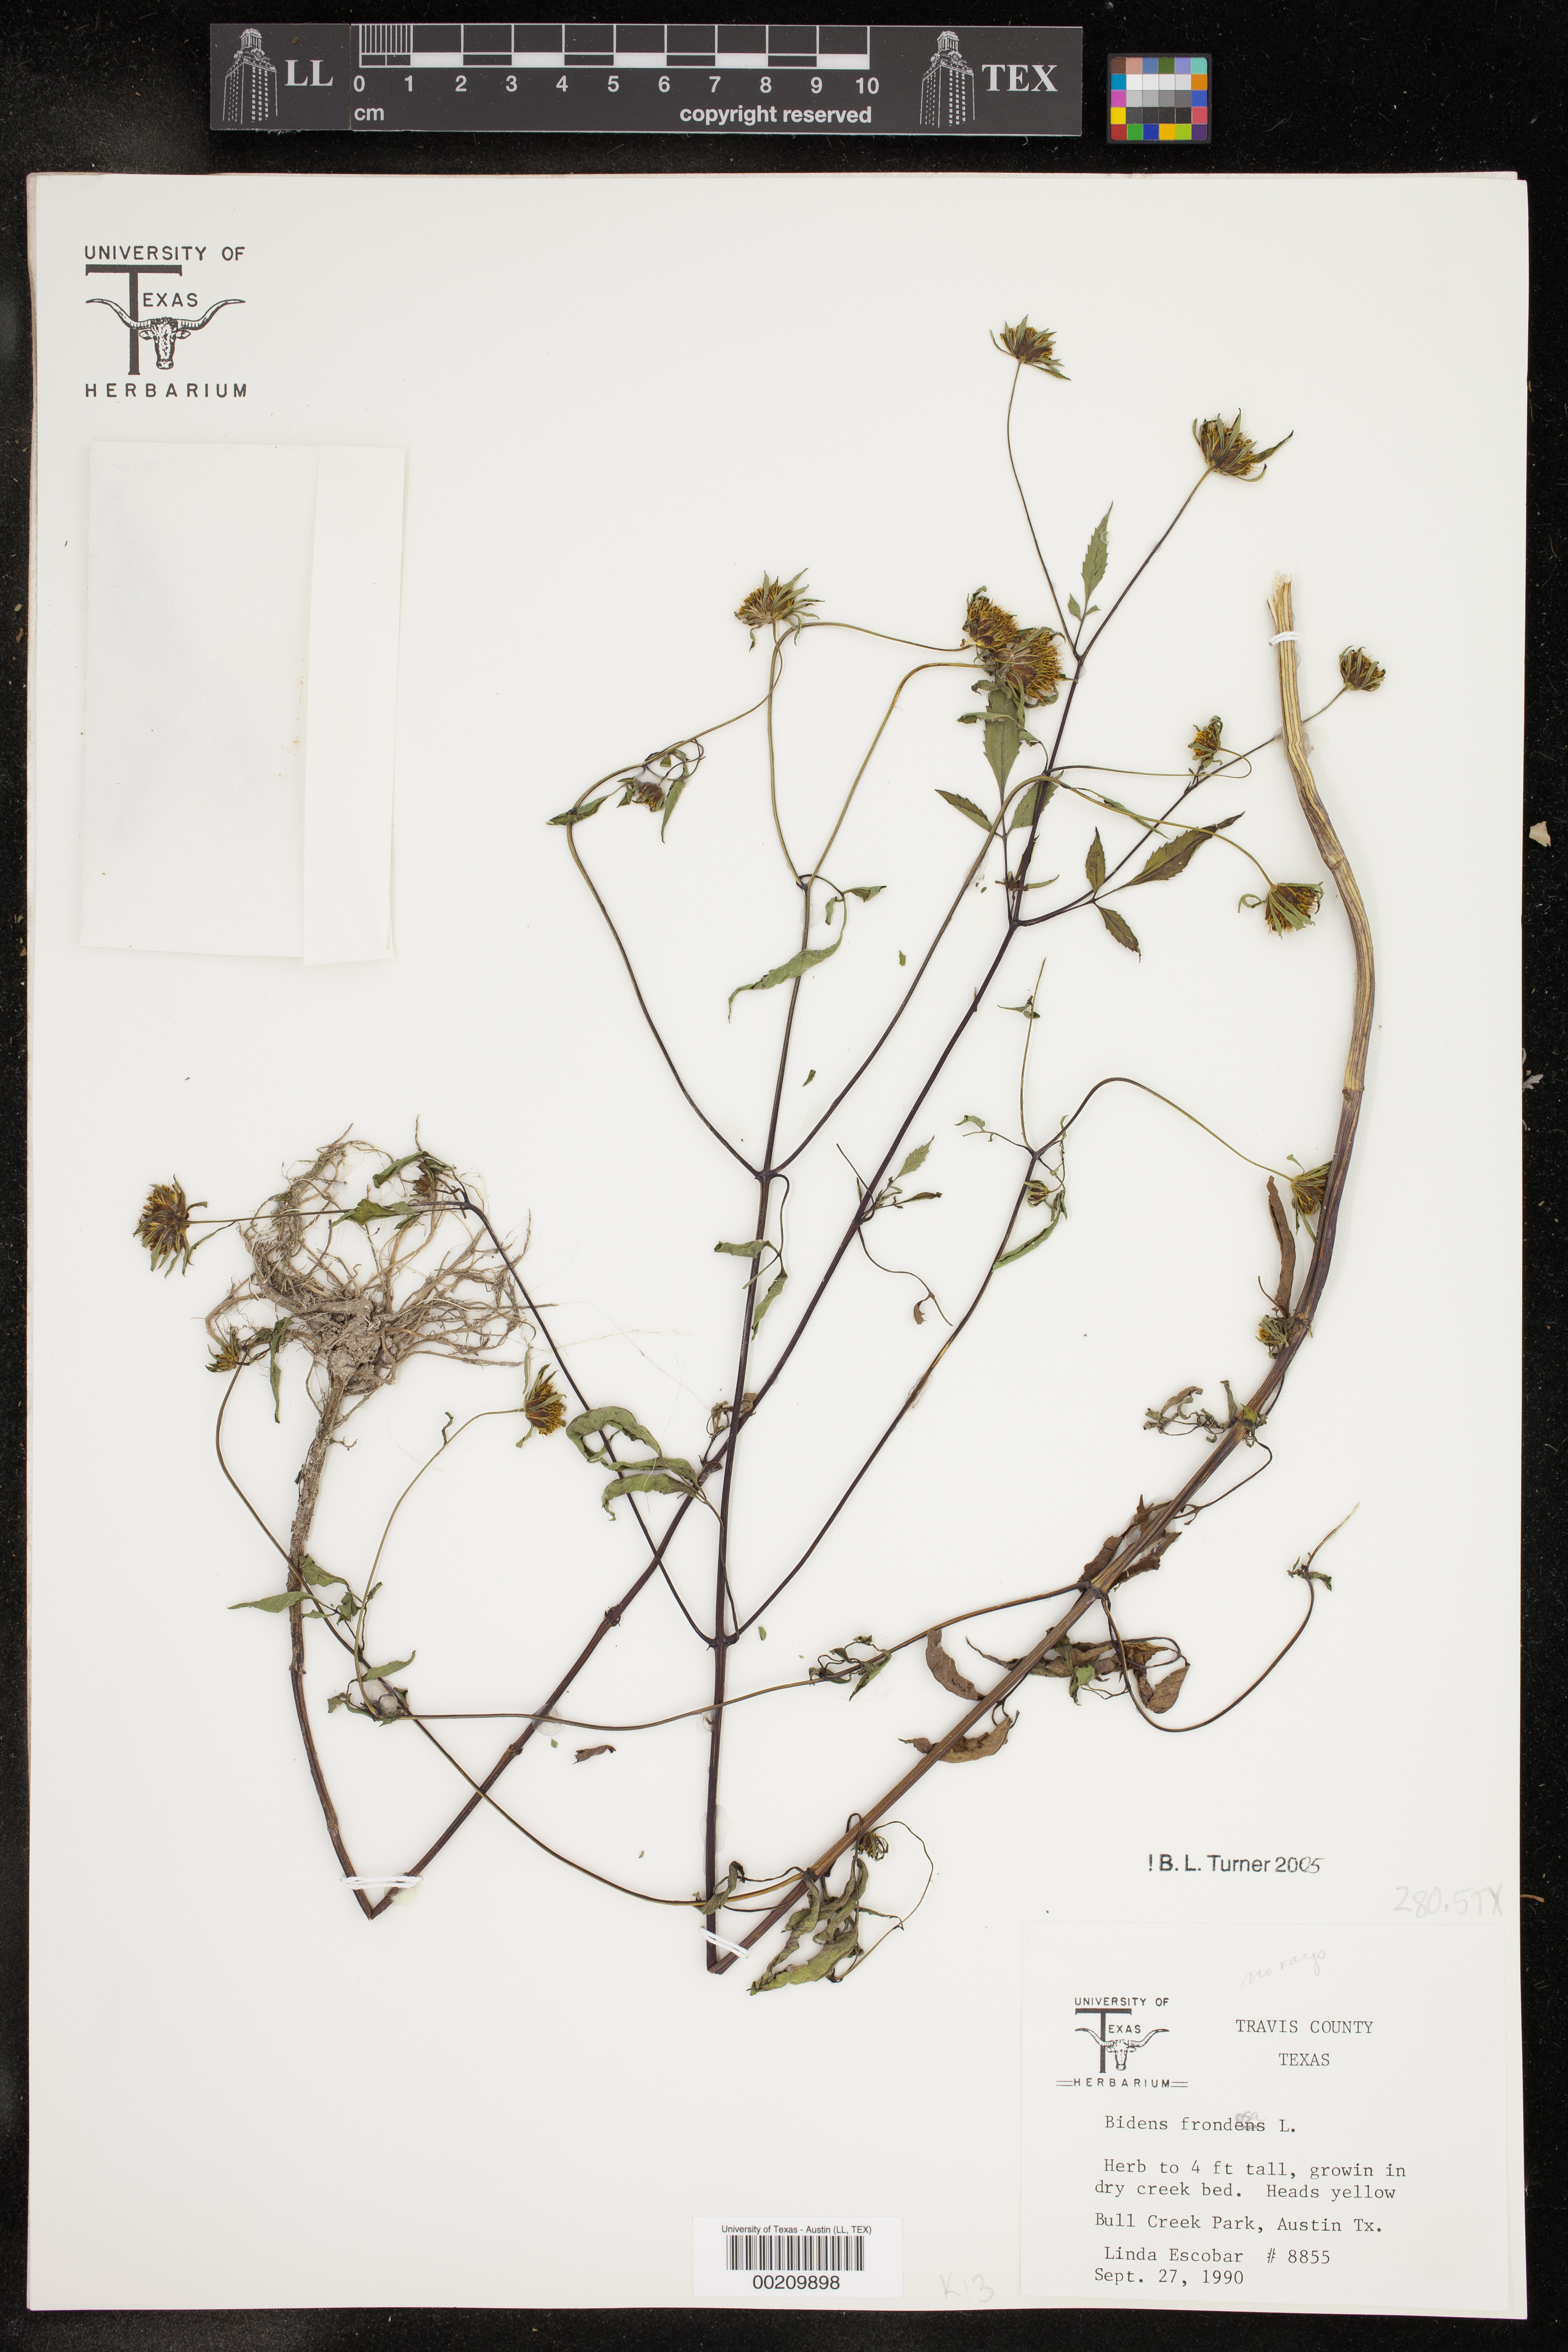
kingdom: Plantae
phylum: Tracheophyta
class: Magnoliopsida
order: Asterales
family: Asteraceae
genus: Bidens
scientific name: Bidens frondosa
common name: Beggarticks
